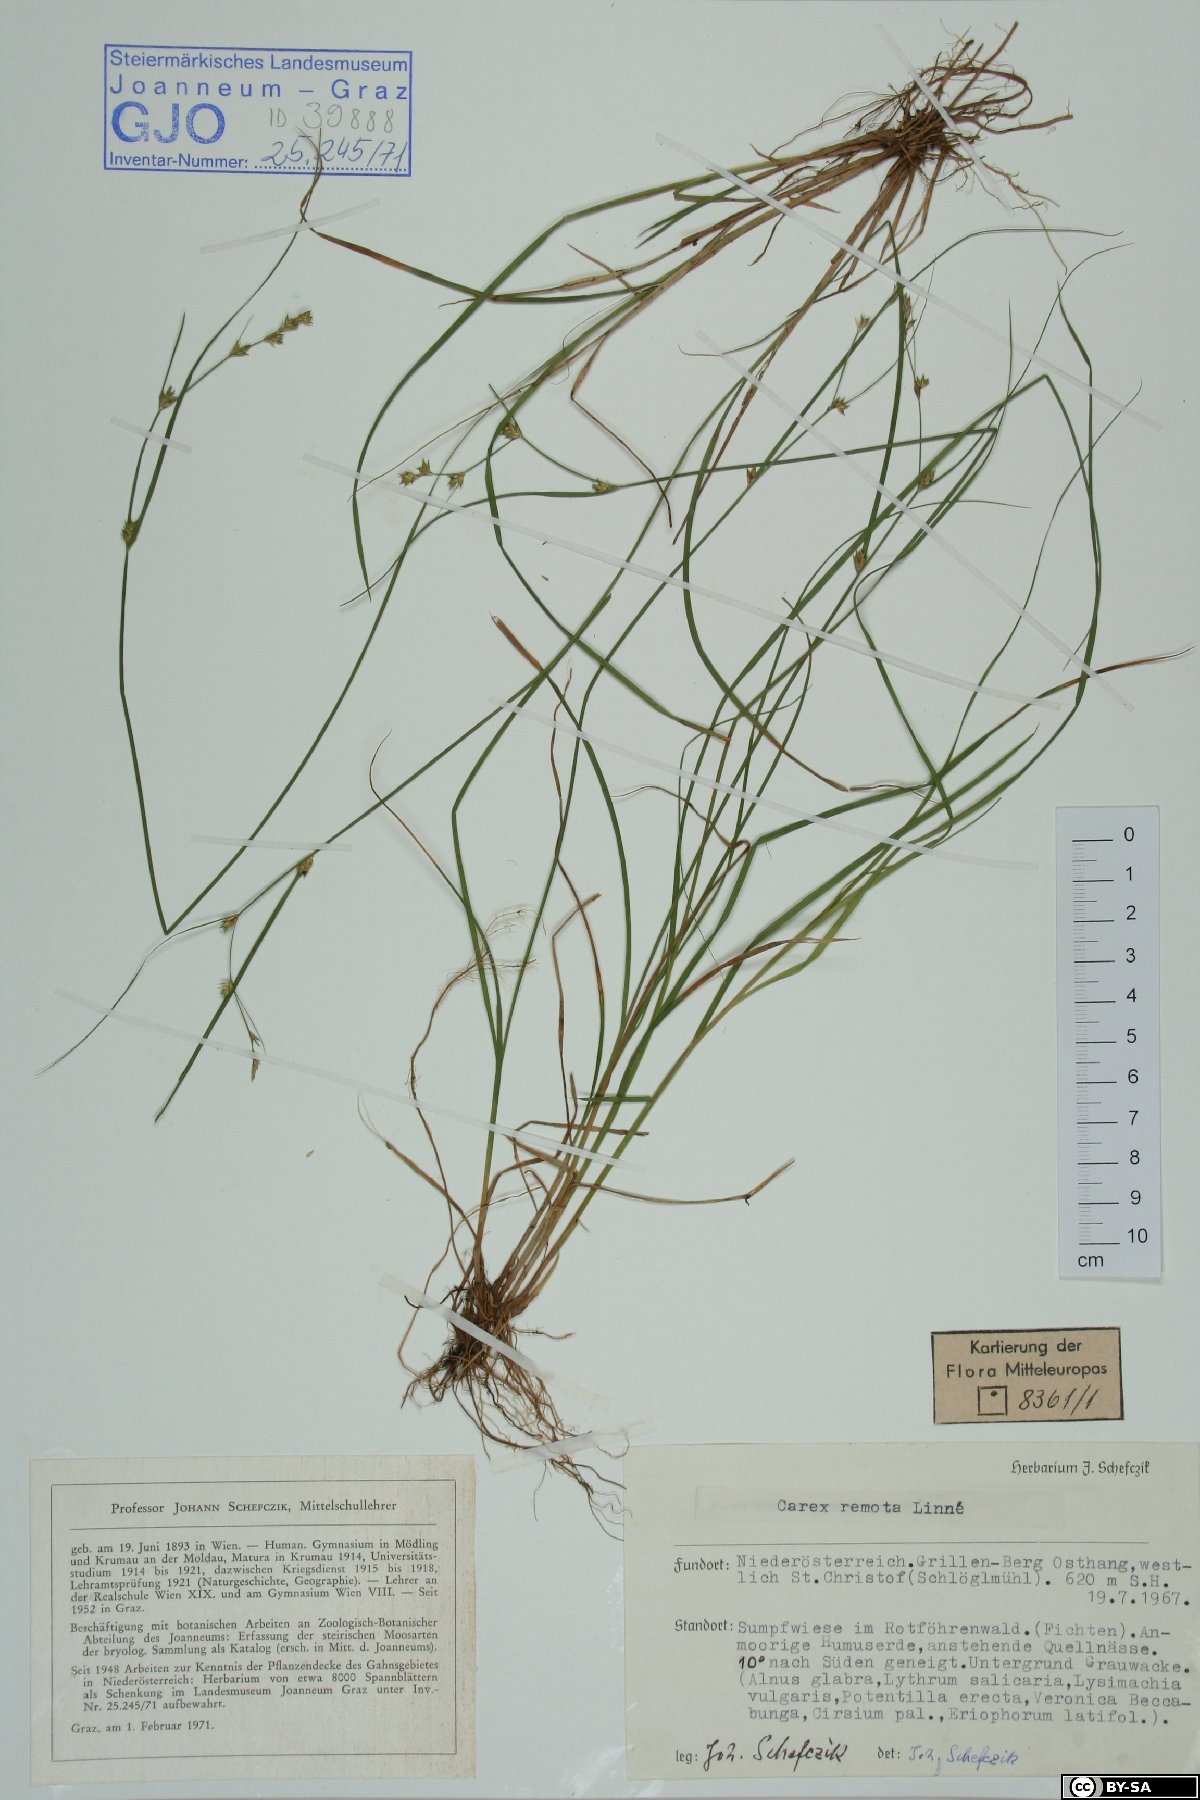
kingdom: Plantae
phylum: Tracheophyta
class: Liliopsida
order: Poales
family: Cyperaceae
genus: Carex
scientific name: Carex remota
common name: Remote sedge
